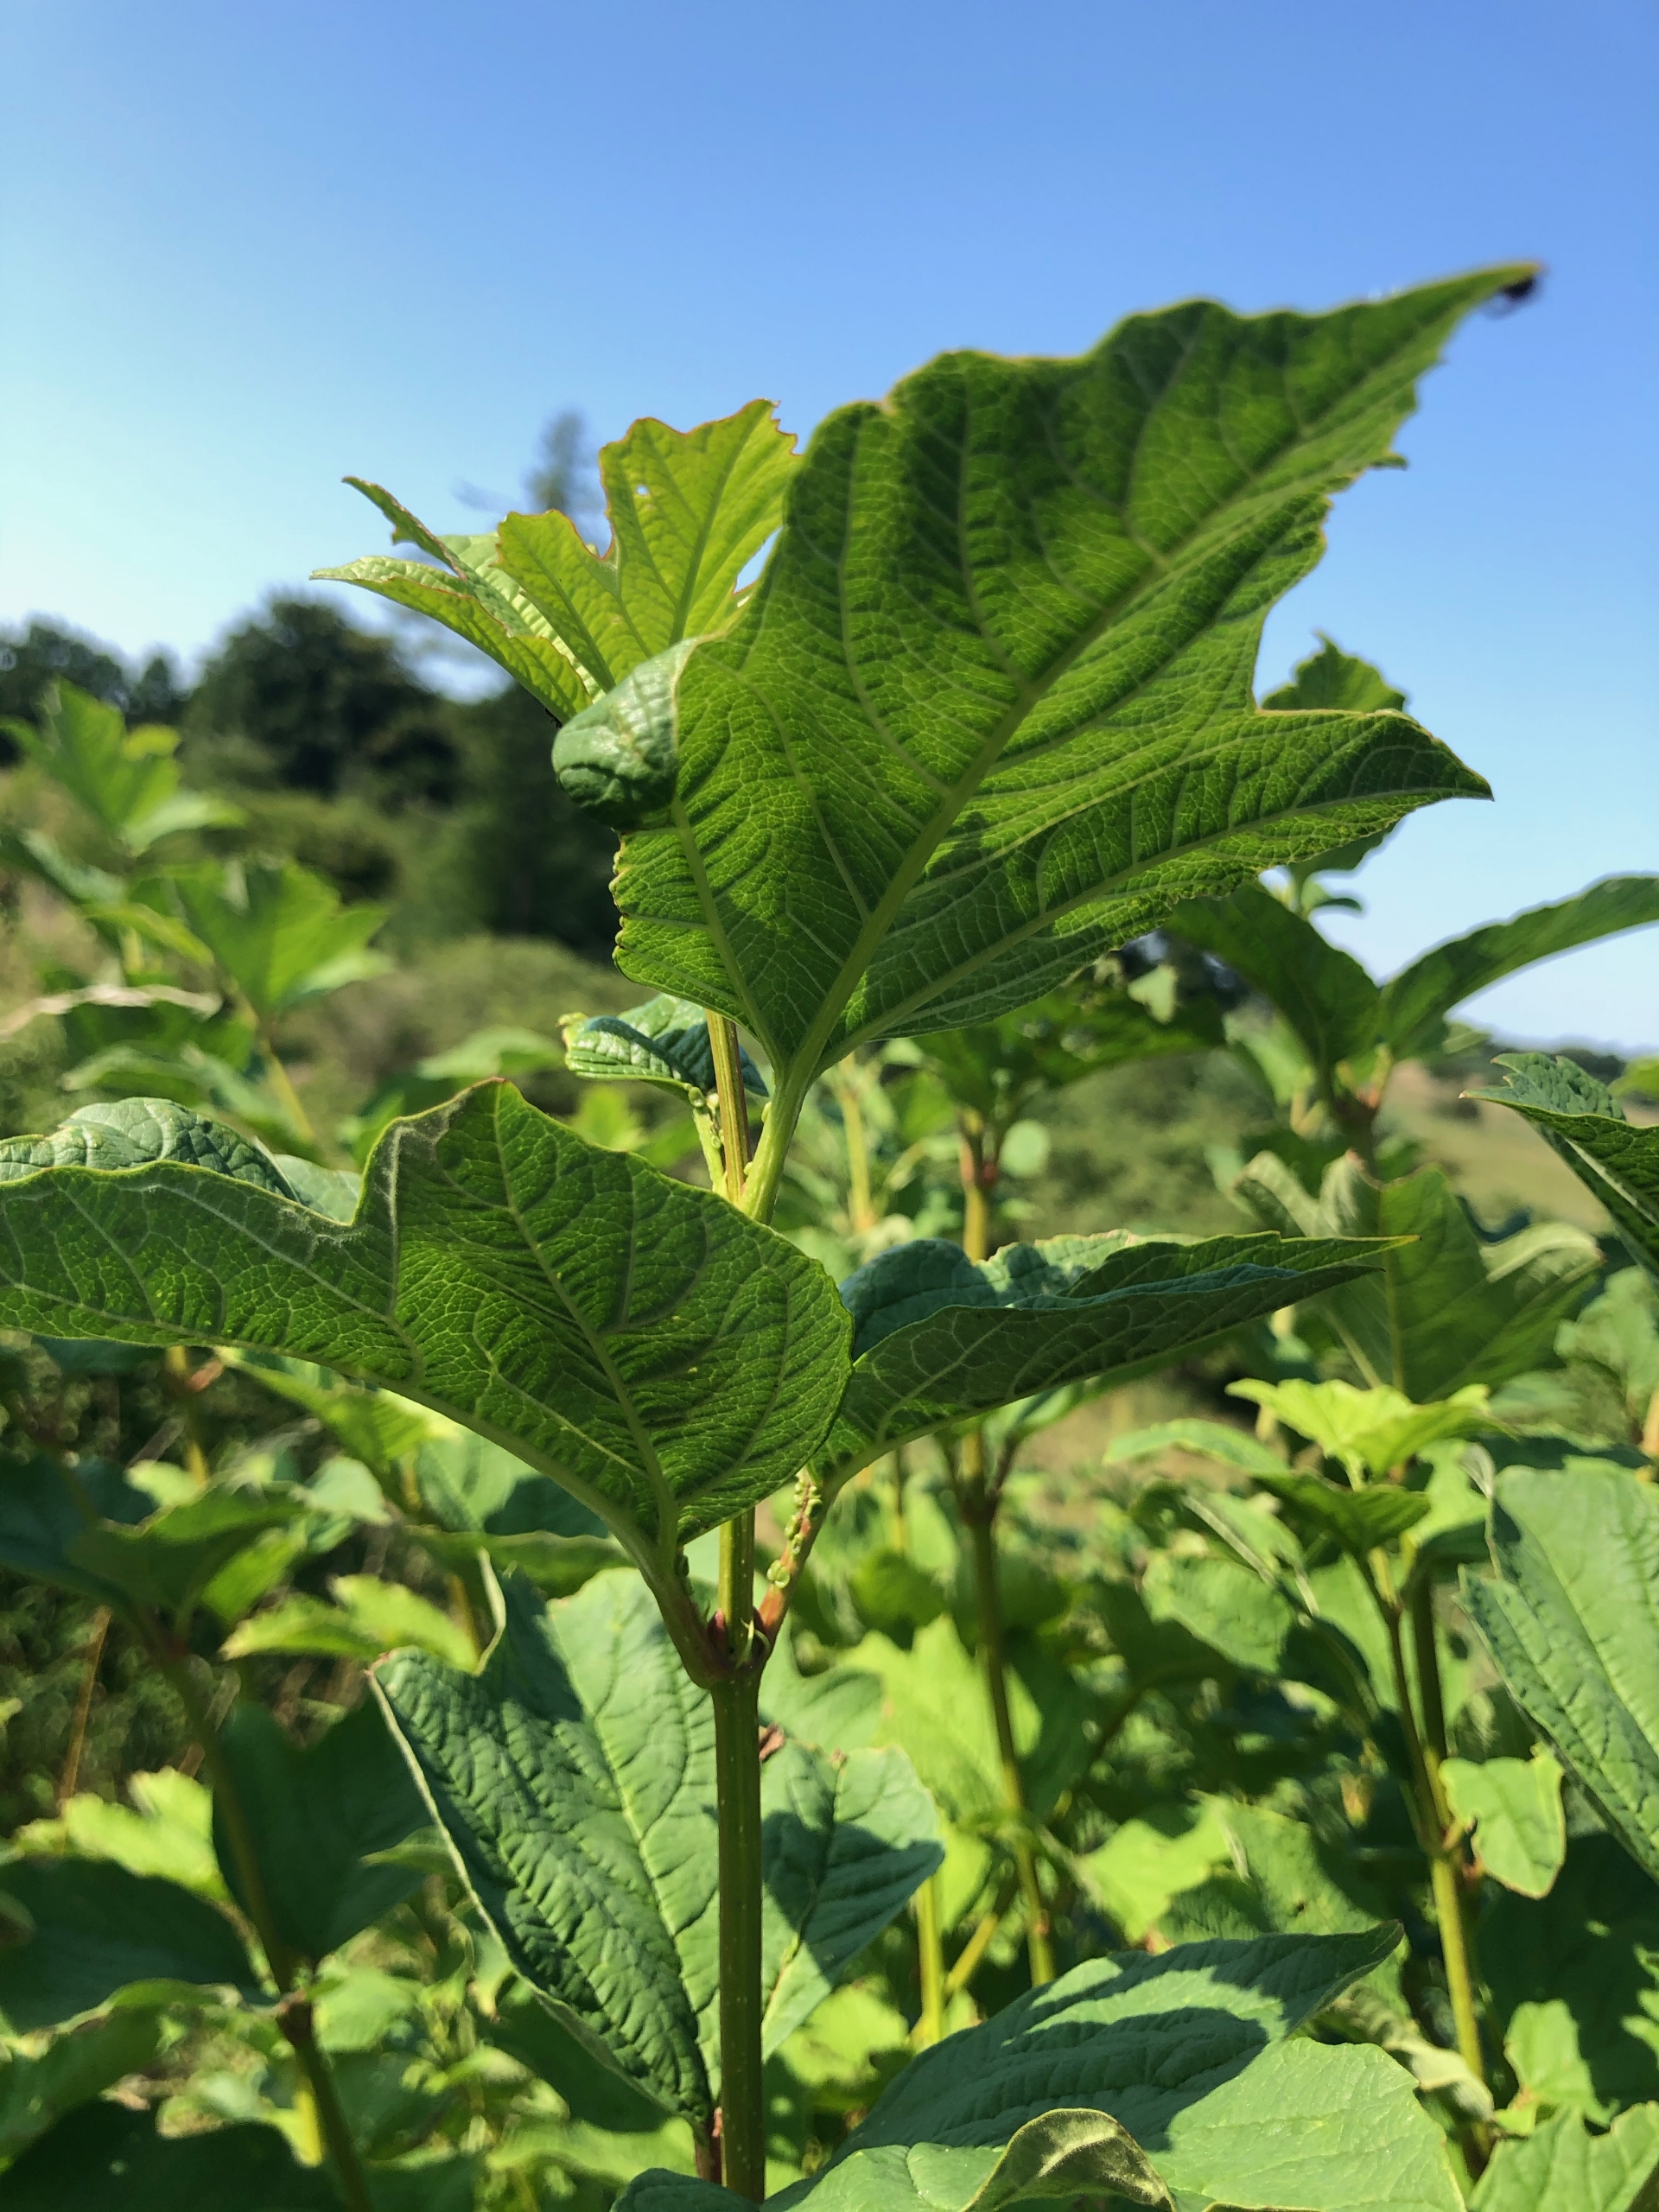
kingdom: Plantae
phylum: Tracheophyta
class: Magnoliopsida
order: Dipsacales
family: Viburnaceae
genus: Viburnum
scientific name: Viburnum opulus
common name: Kvalkved
